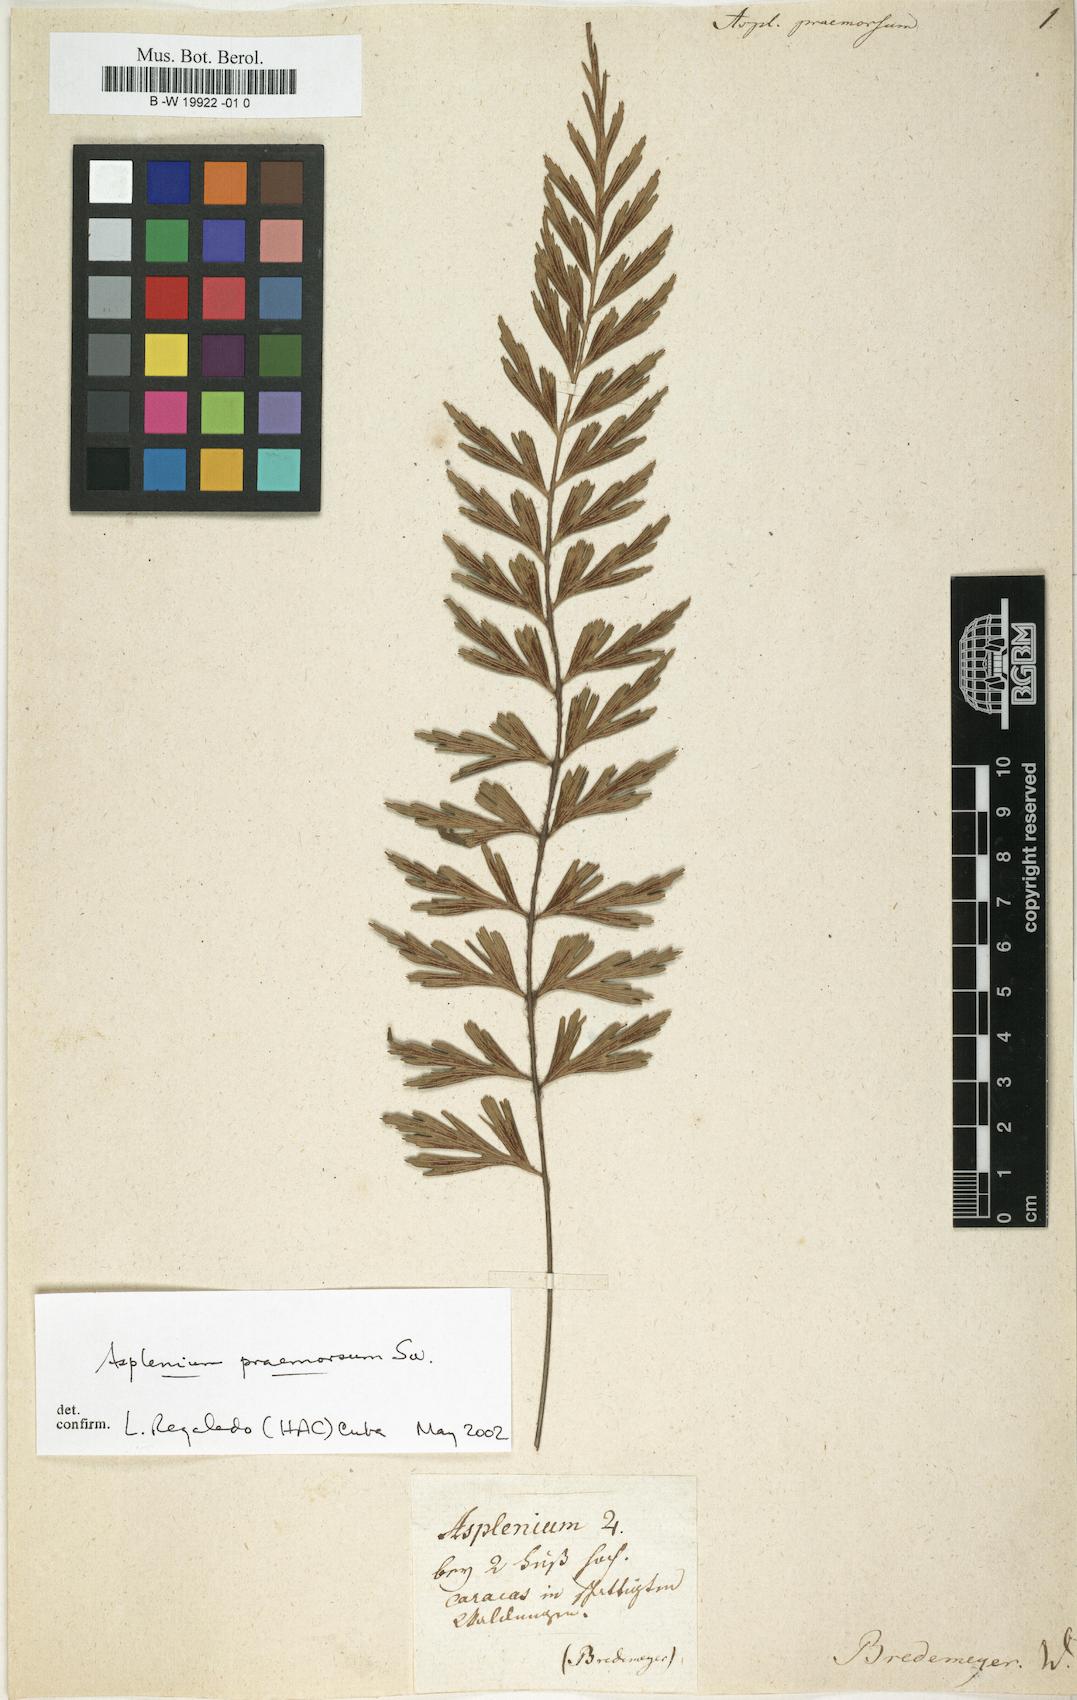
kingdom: Plantae
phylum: Tracheophyta
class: Polypodiopsida
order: Polypodiales
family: Aspleniaceae
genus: Asplenium
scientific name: Asplenium praemorsum
